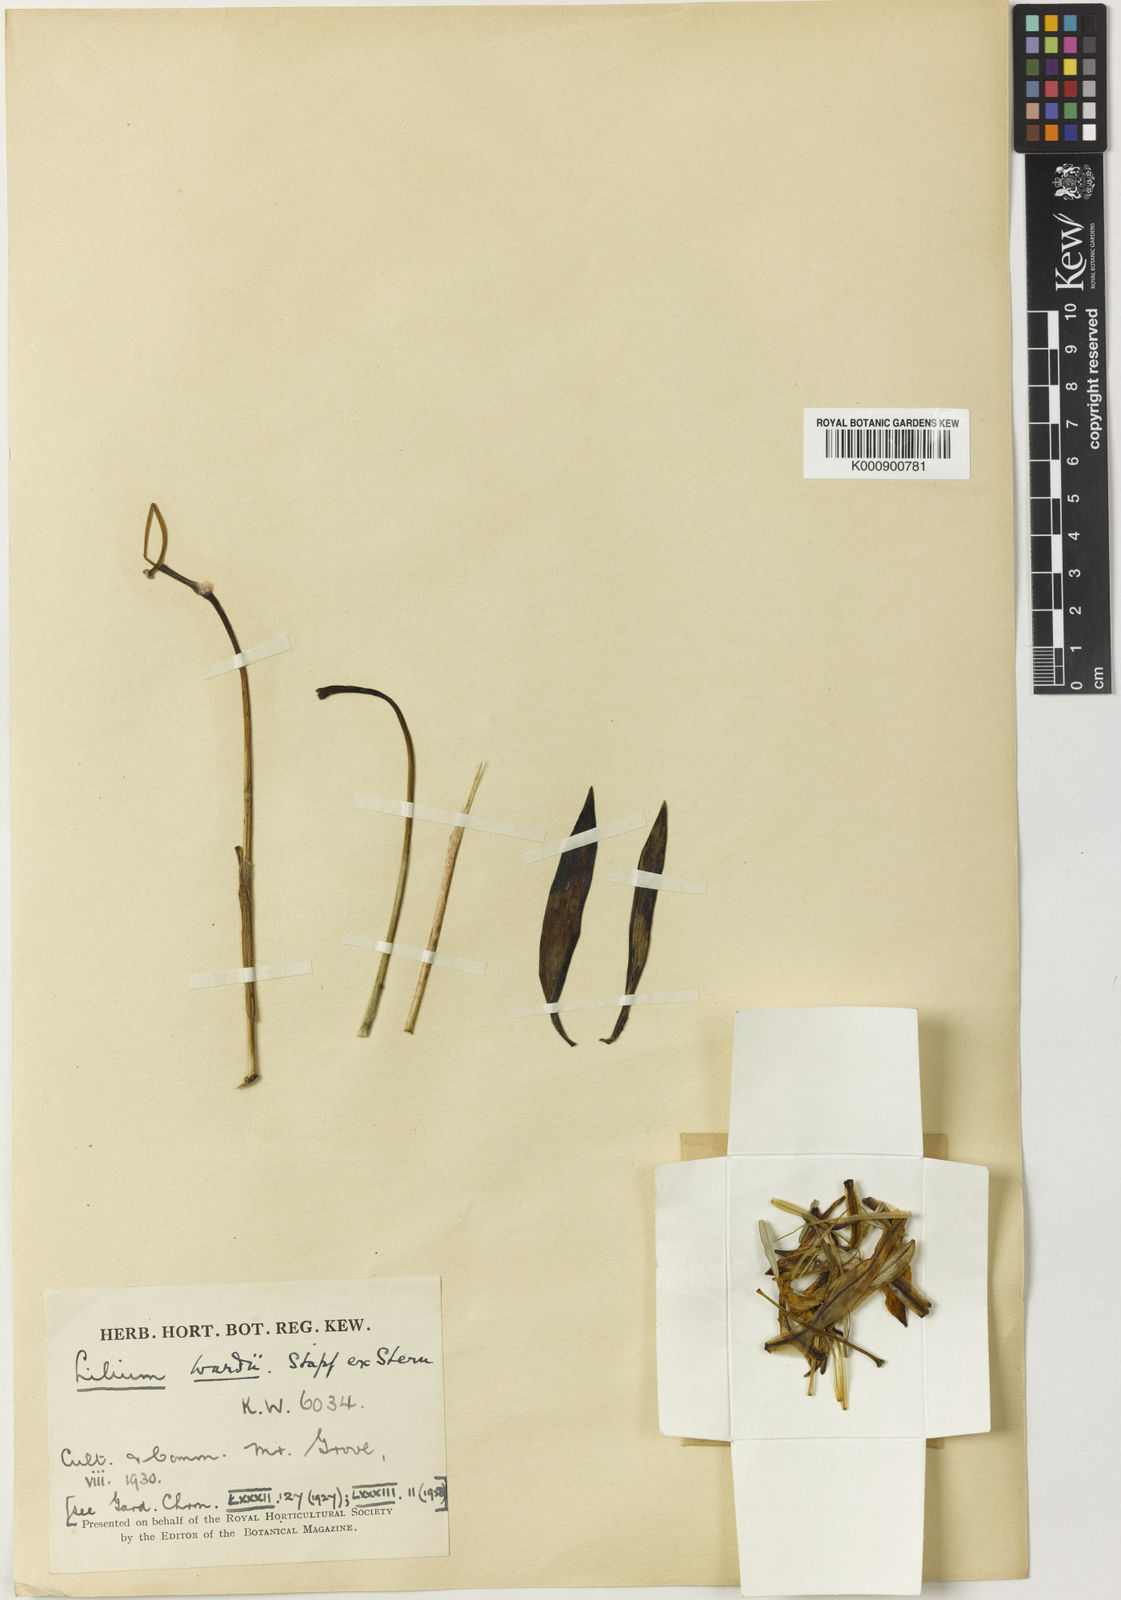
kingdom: Plantae
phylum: Tracheophyta
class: Liliopsida
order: Liliales
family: Liliaceae
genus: Lilium
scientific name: Lilium wardii
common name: Ward's lily
